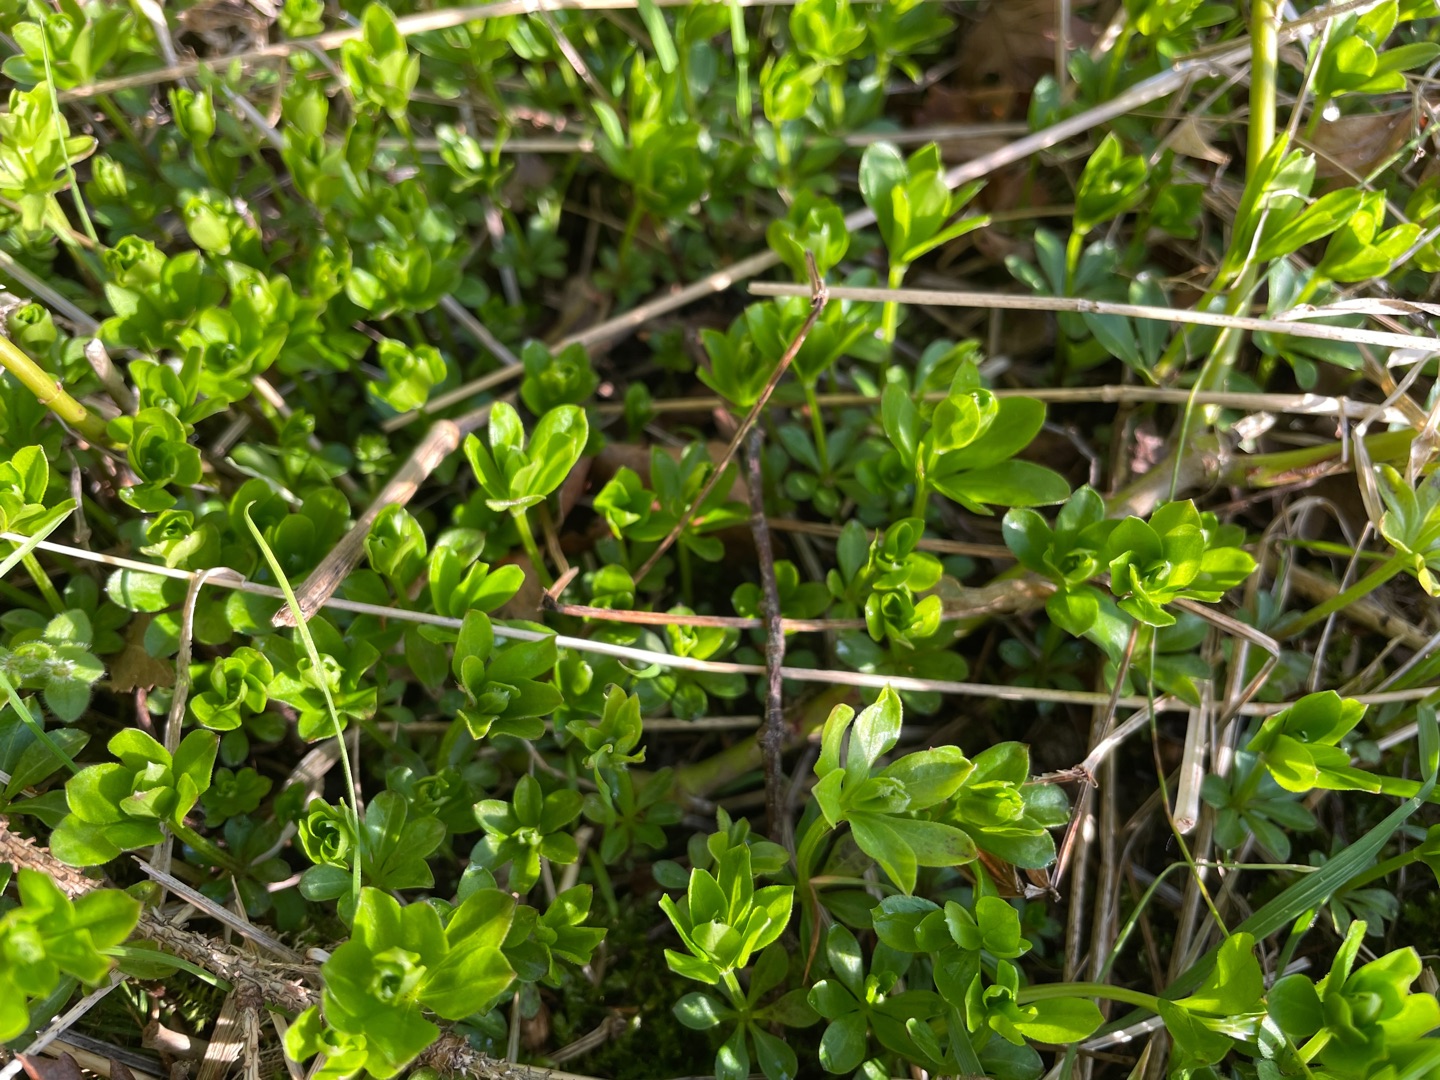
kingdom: Plantae
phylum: Tracheophyta
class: Magnoliopsida
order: Gentianales
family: Rubiaceae
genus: Galium
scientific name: Galium odoratum
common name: Skovmærke
